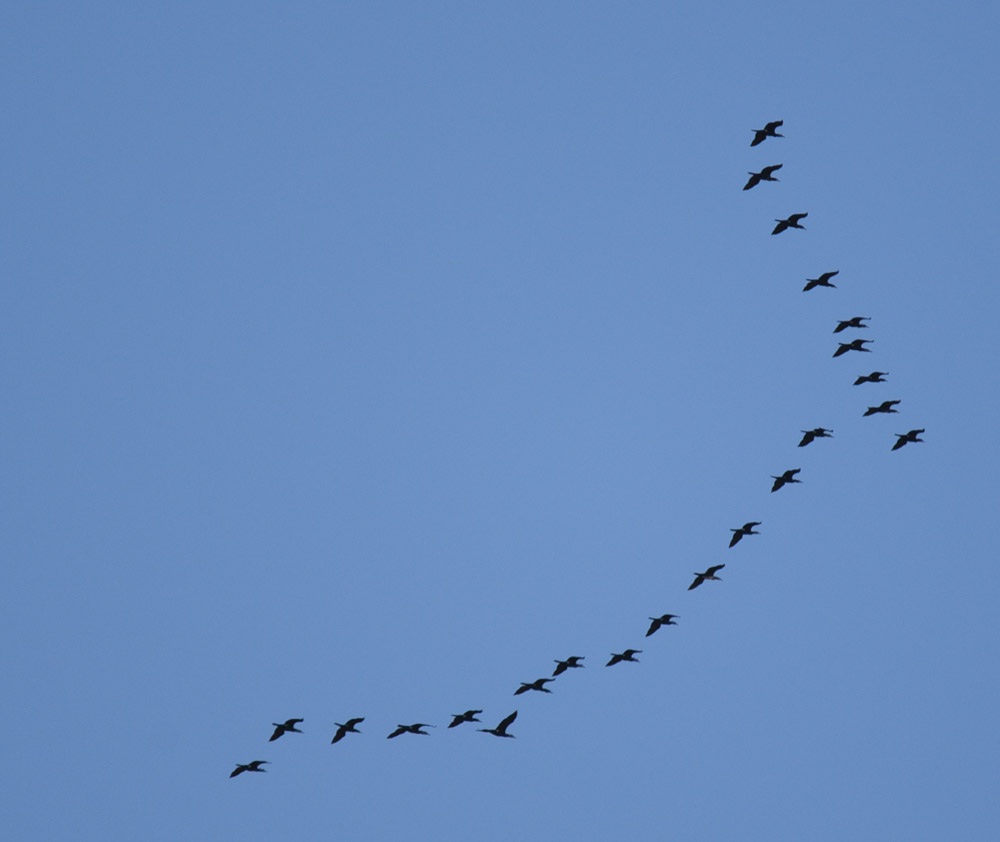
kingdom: Animalia
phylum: Chordata
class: Aves
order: Suliformes
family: Phalacrocoracidae
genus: Phalacrocorax
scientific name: Phalacrocorax carbo
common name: Great cormorant
